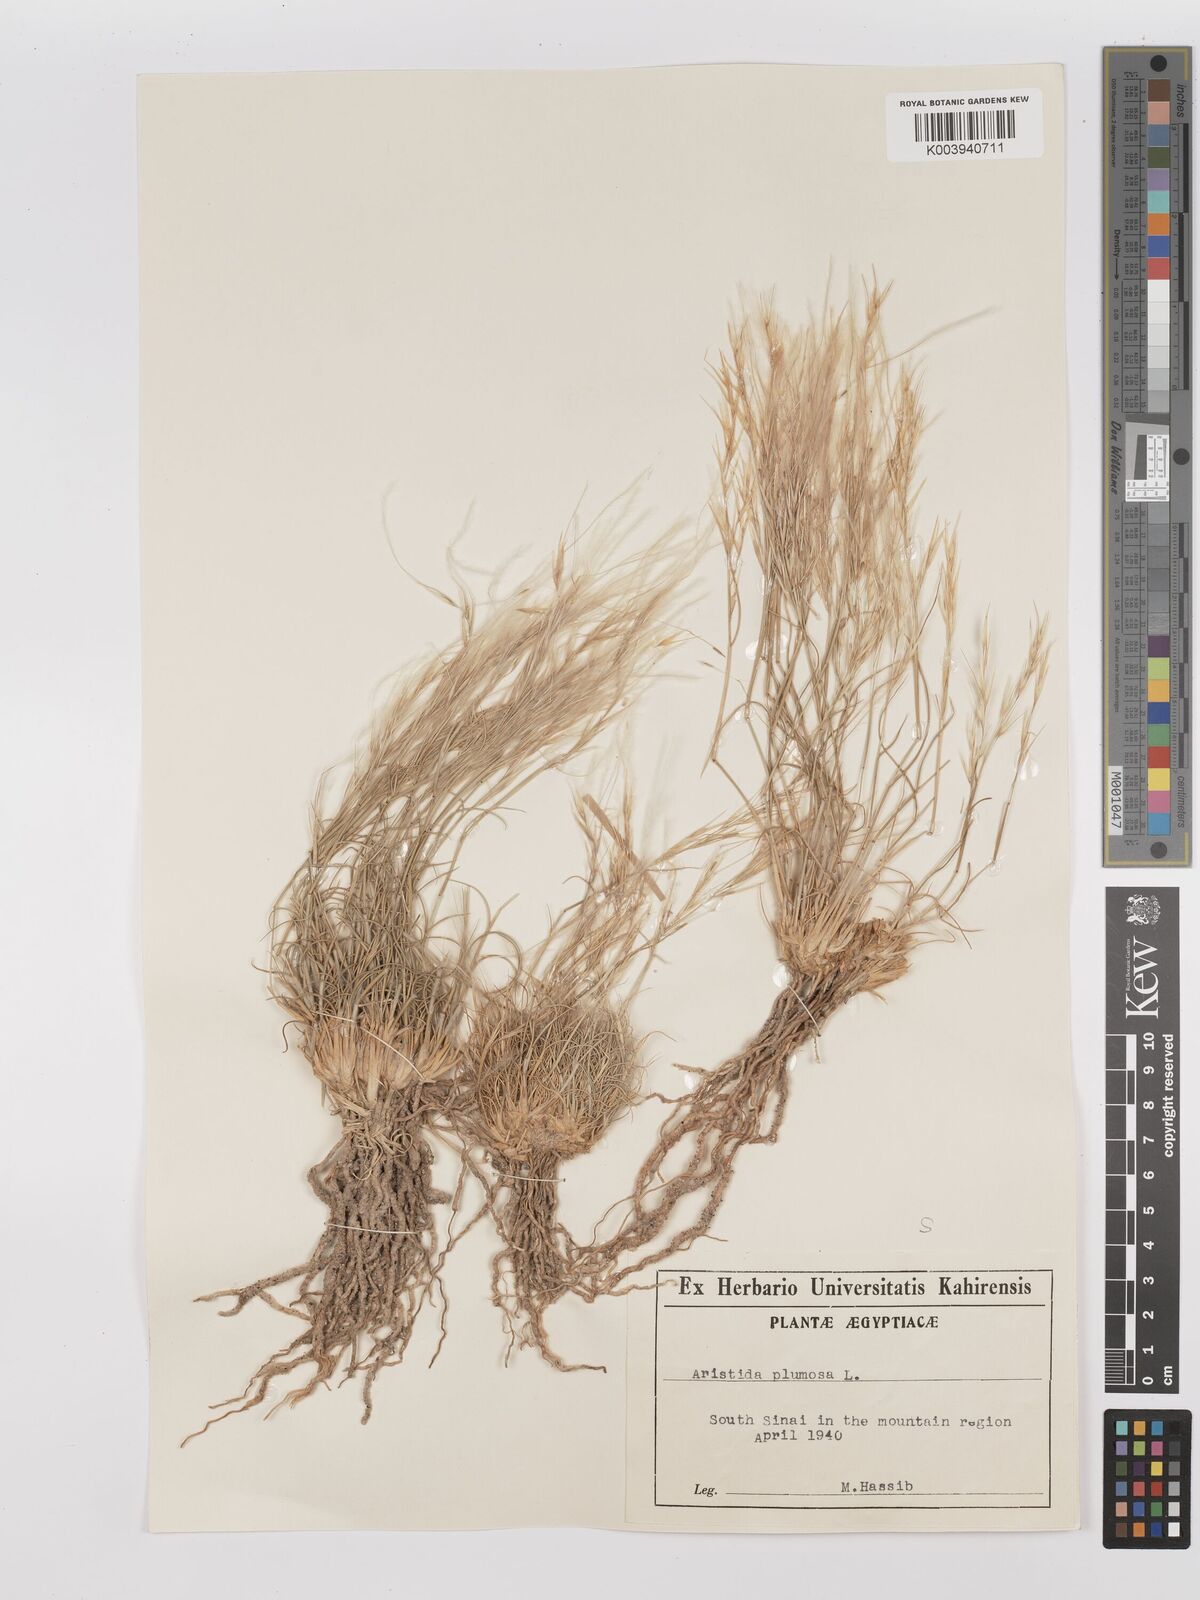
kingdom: Plantae
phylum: Tracheophyta
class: Liliopsida
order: Poales
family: Poaceae
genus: Stipagrostis
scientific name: Stipagrostis plumosa
